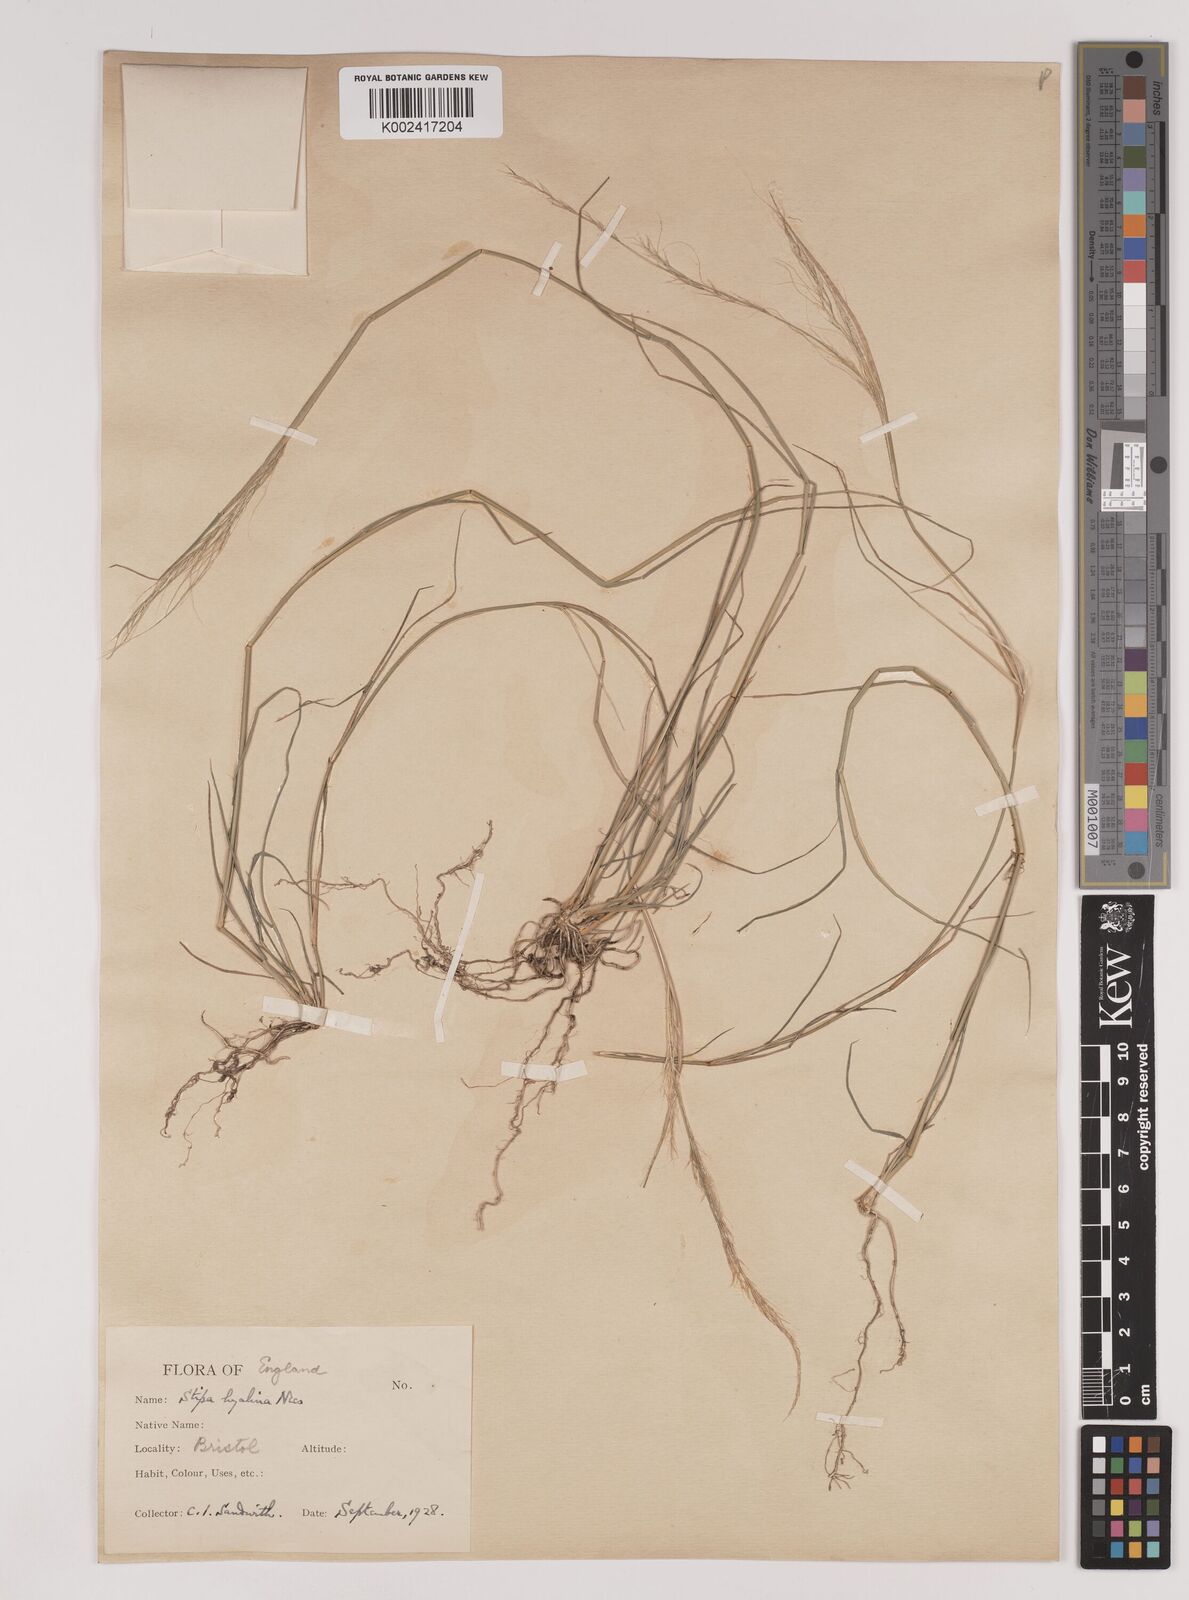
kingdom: Plantae
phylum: Tracheophyta
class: Liliopsida
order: Poales
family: Poaceae
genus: Nassella
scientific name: Nassella hyalina
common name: Spear grass
